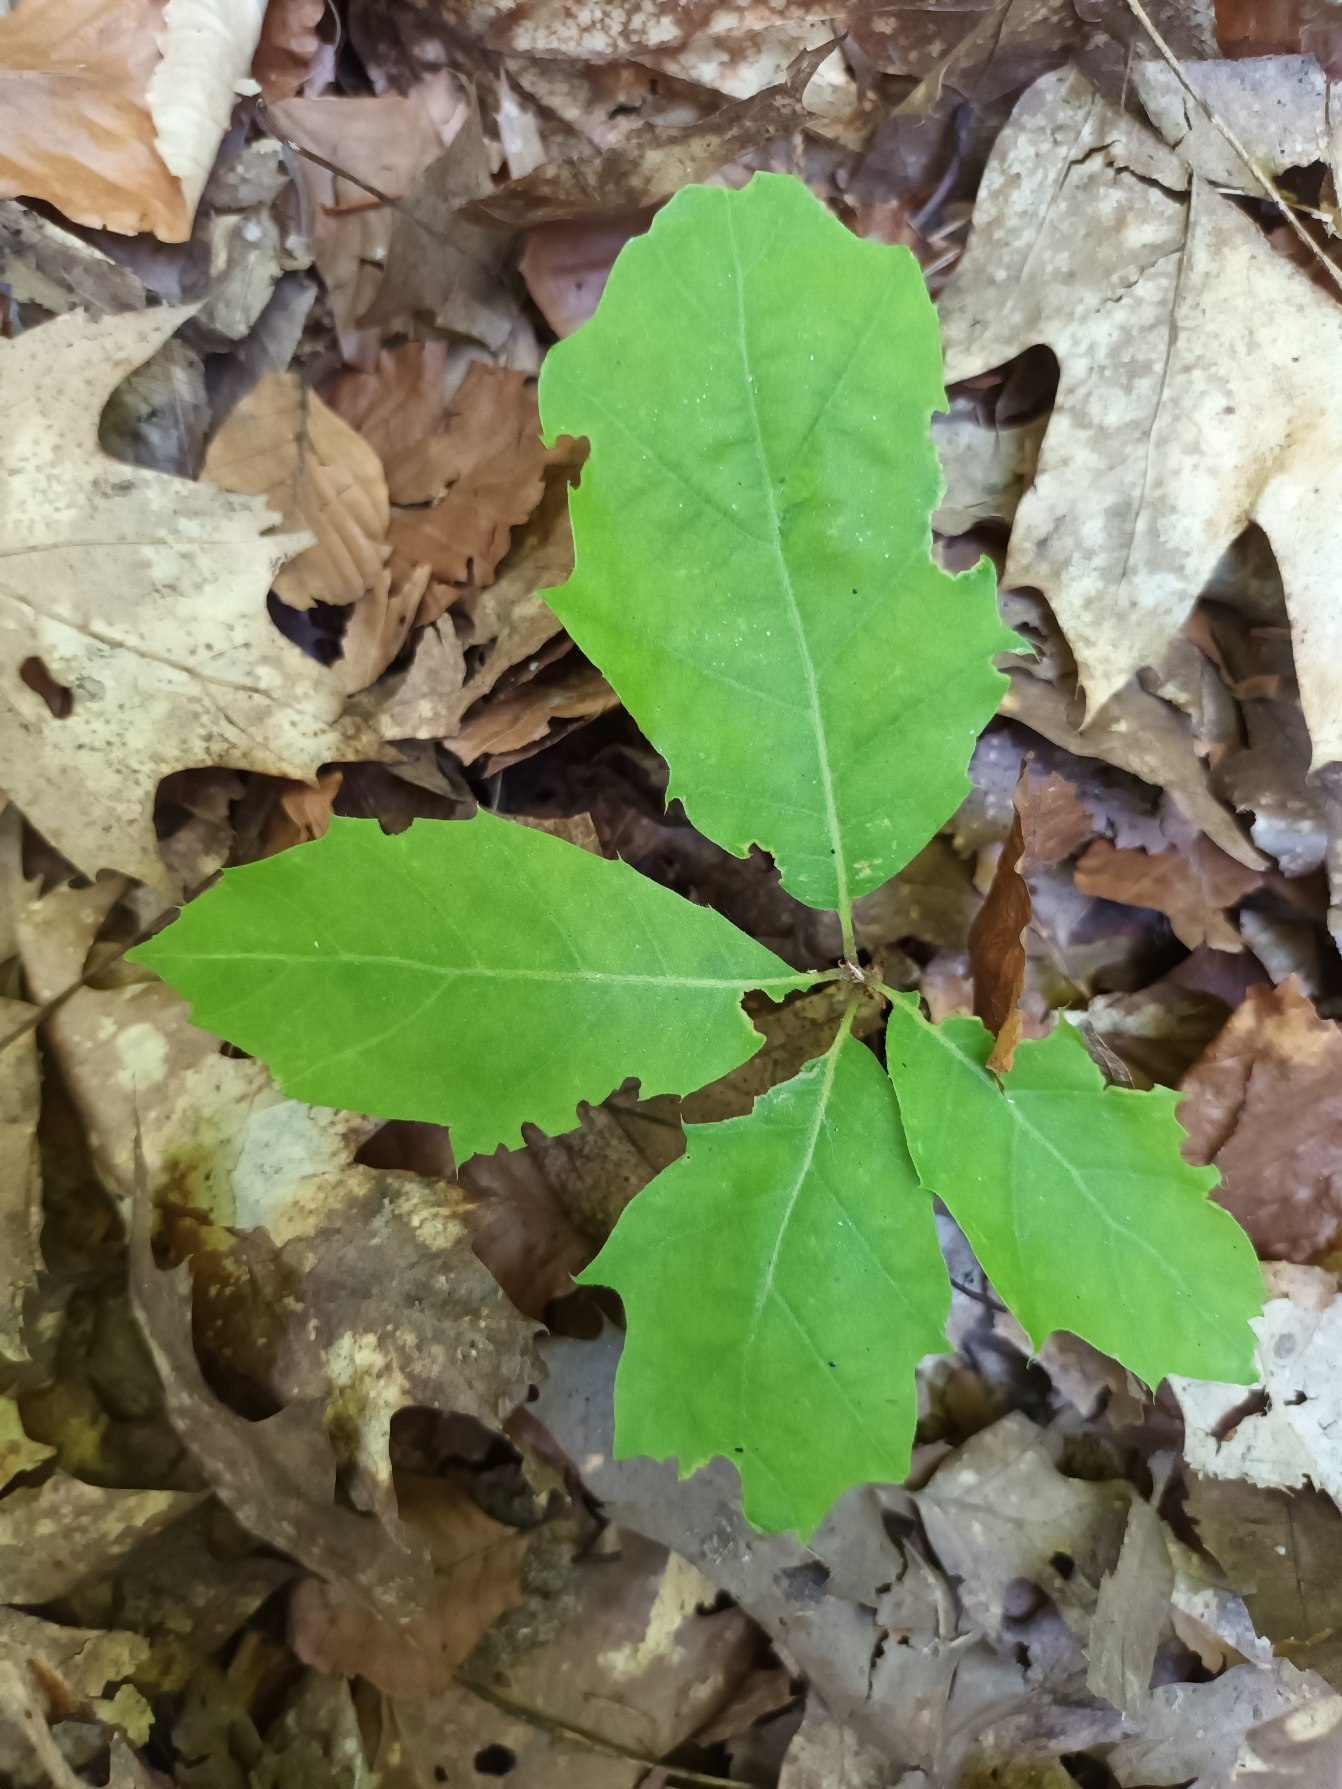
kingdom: Plantae
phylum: Tracheophyta
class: Magnoliopsida
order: Fagales
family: Fagaceae
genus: Quercus
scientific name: Quercus rubra
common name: Rød-eg
